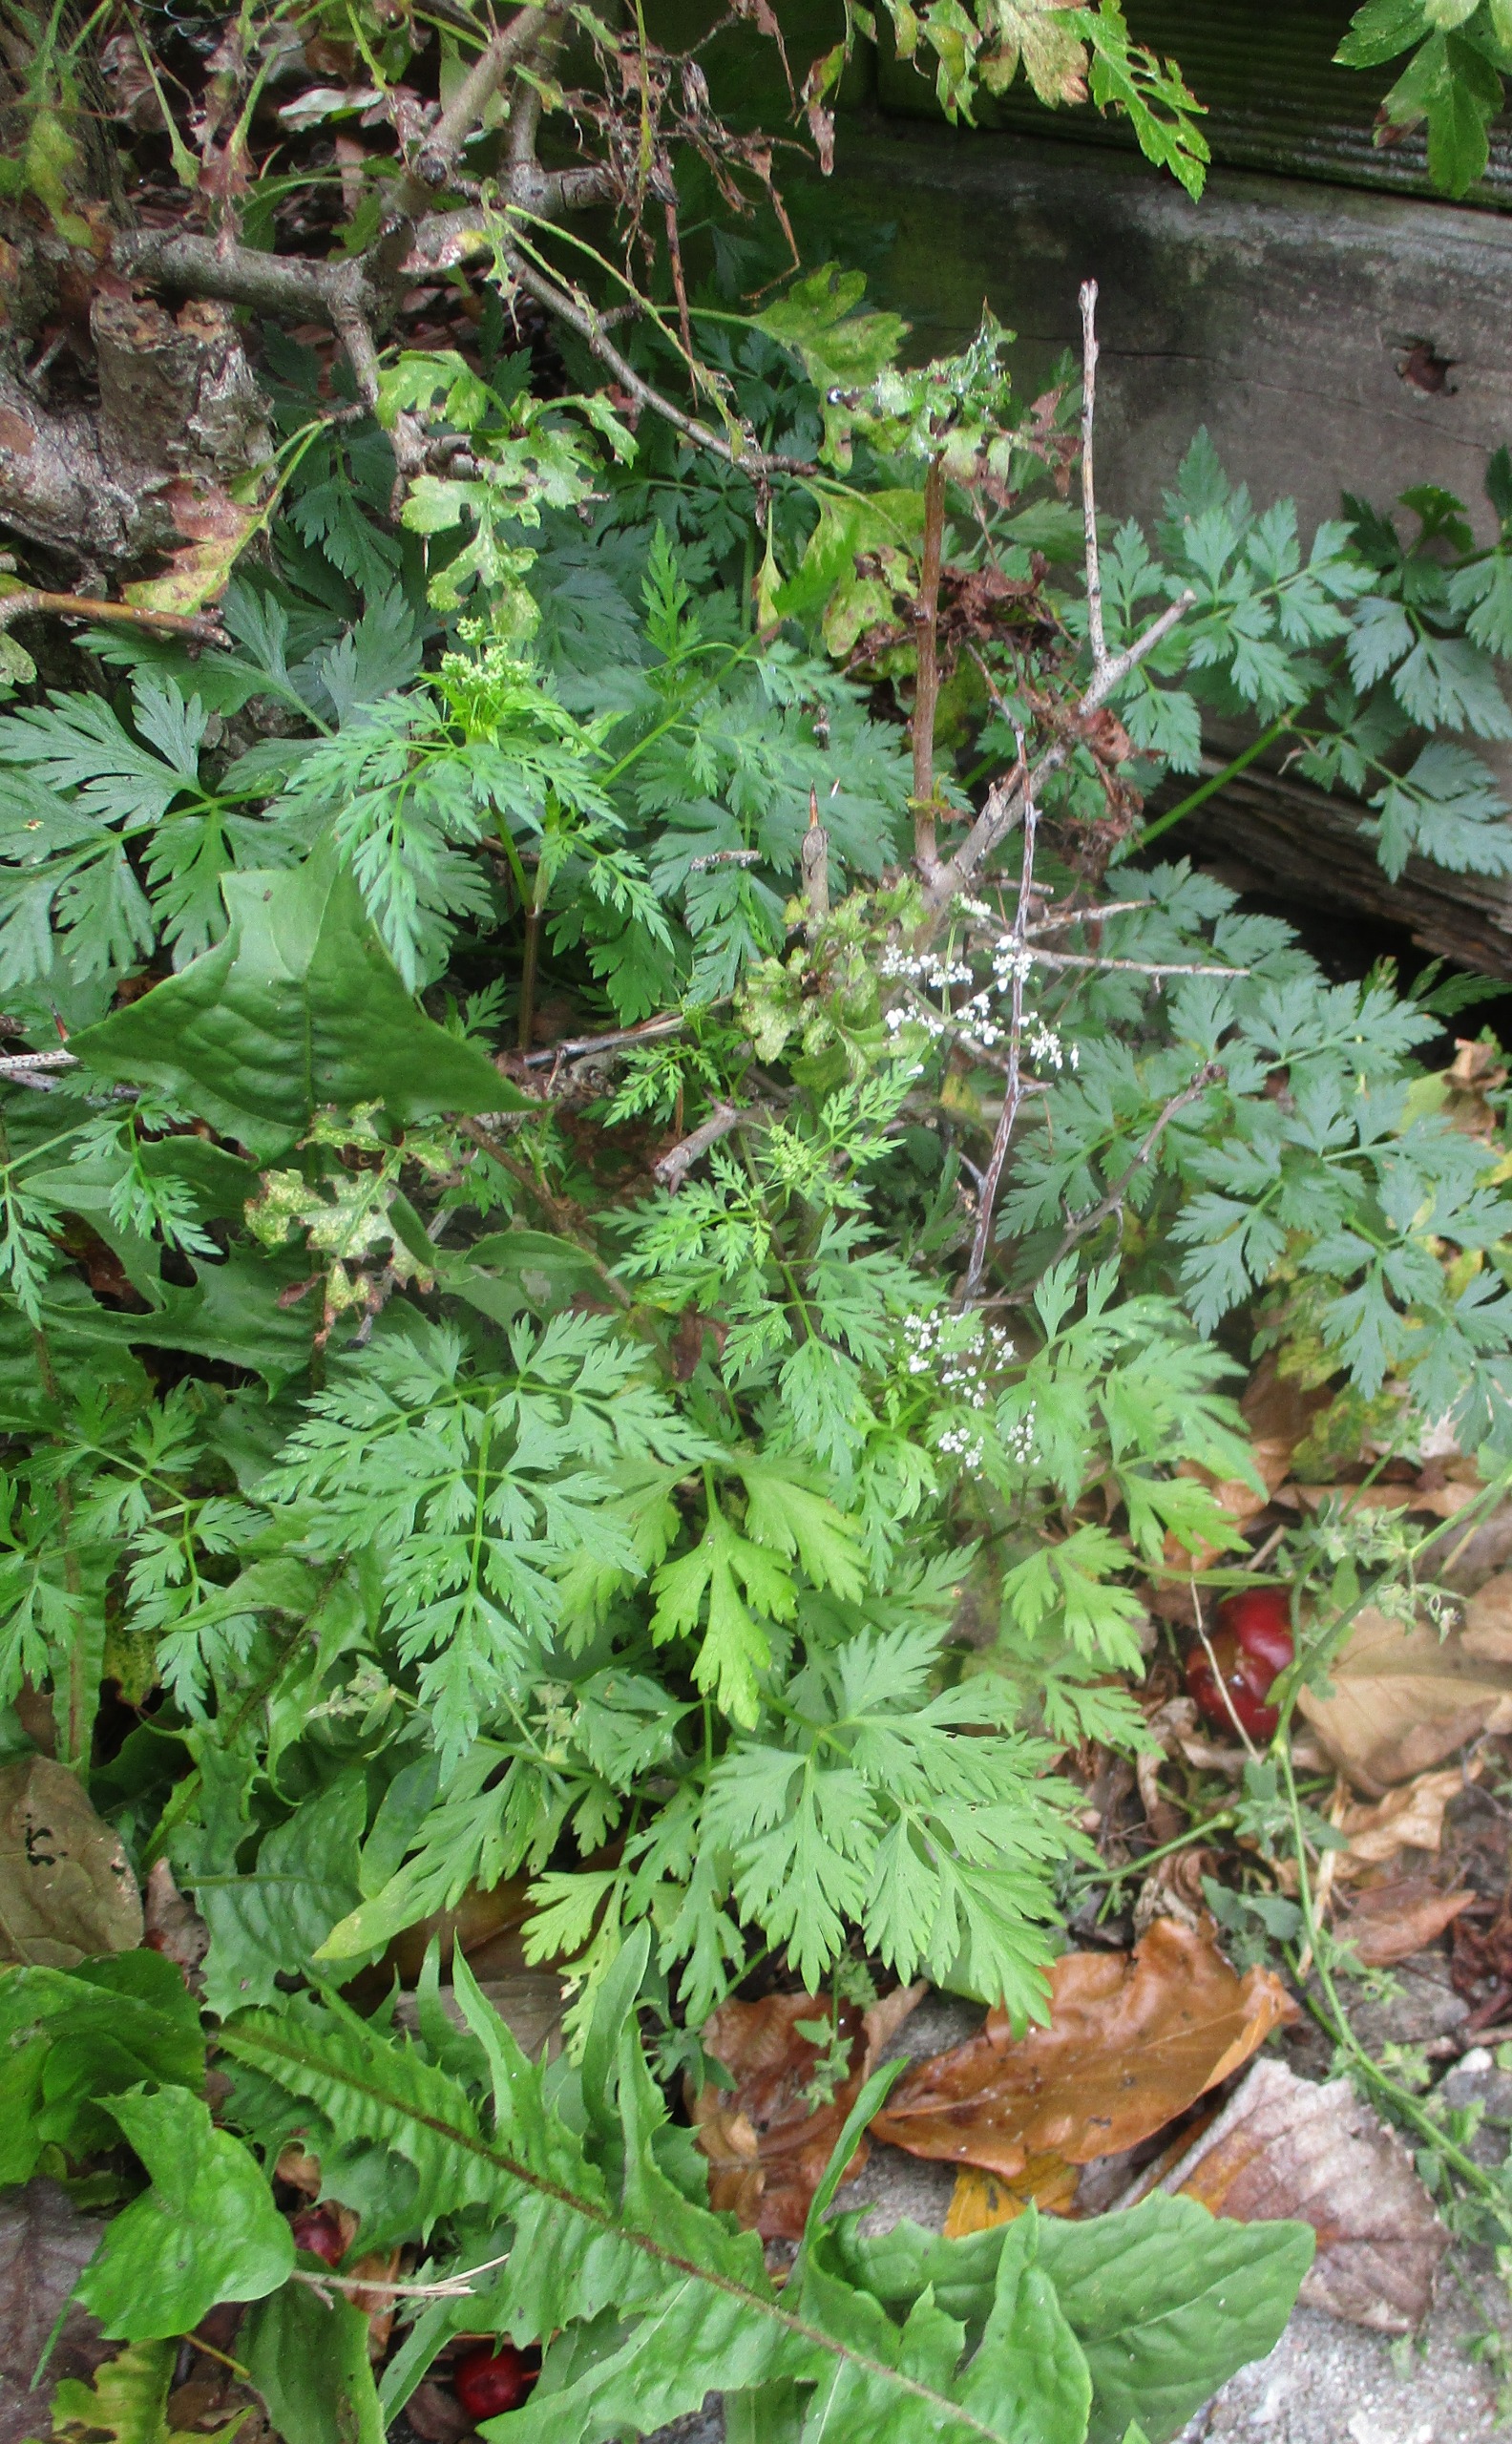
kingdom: Plantae
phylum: Tracheophyta
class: Magnoliopsida
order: Apiales
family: Apiaceae
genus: Aethusa
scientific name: Aethusa cynapium
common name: Hundepersille
